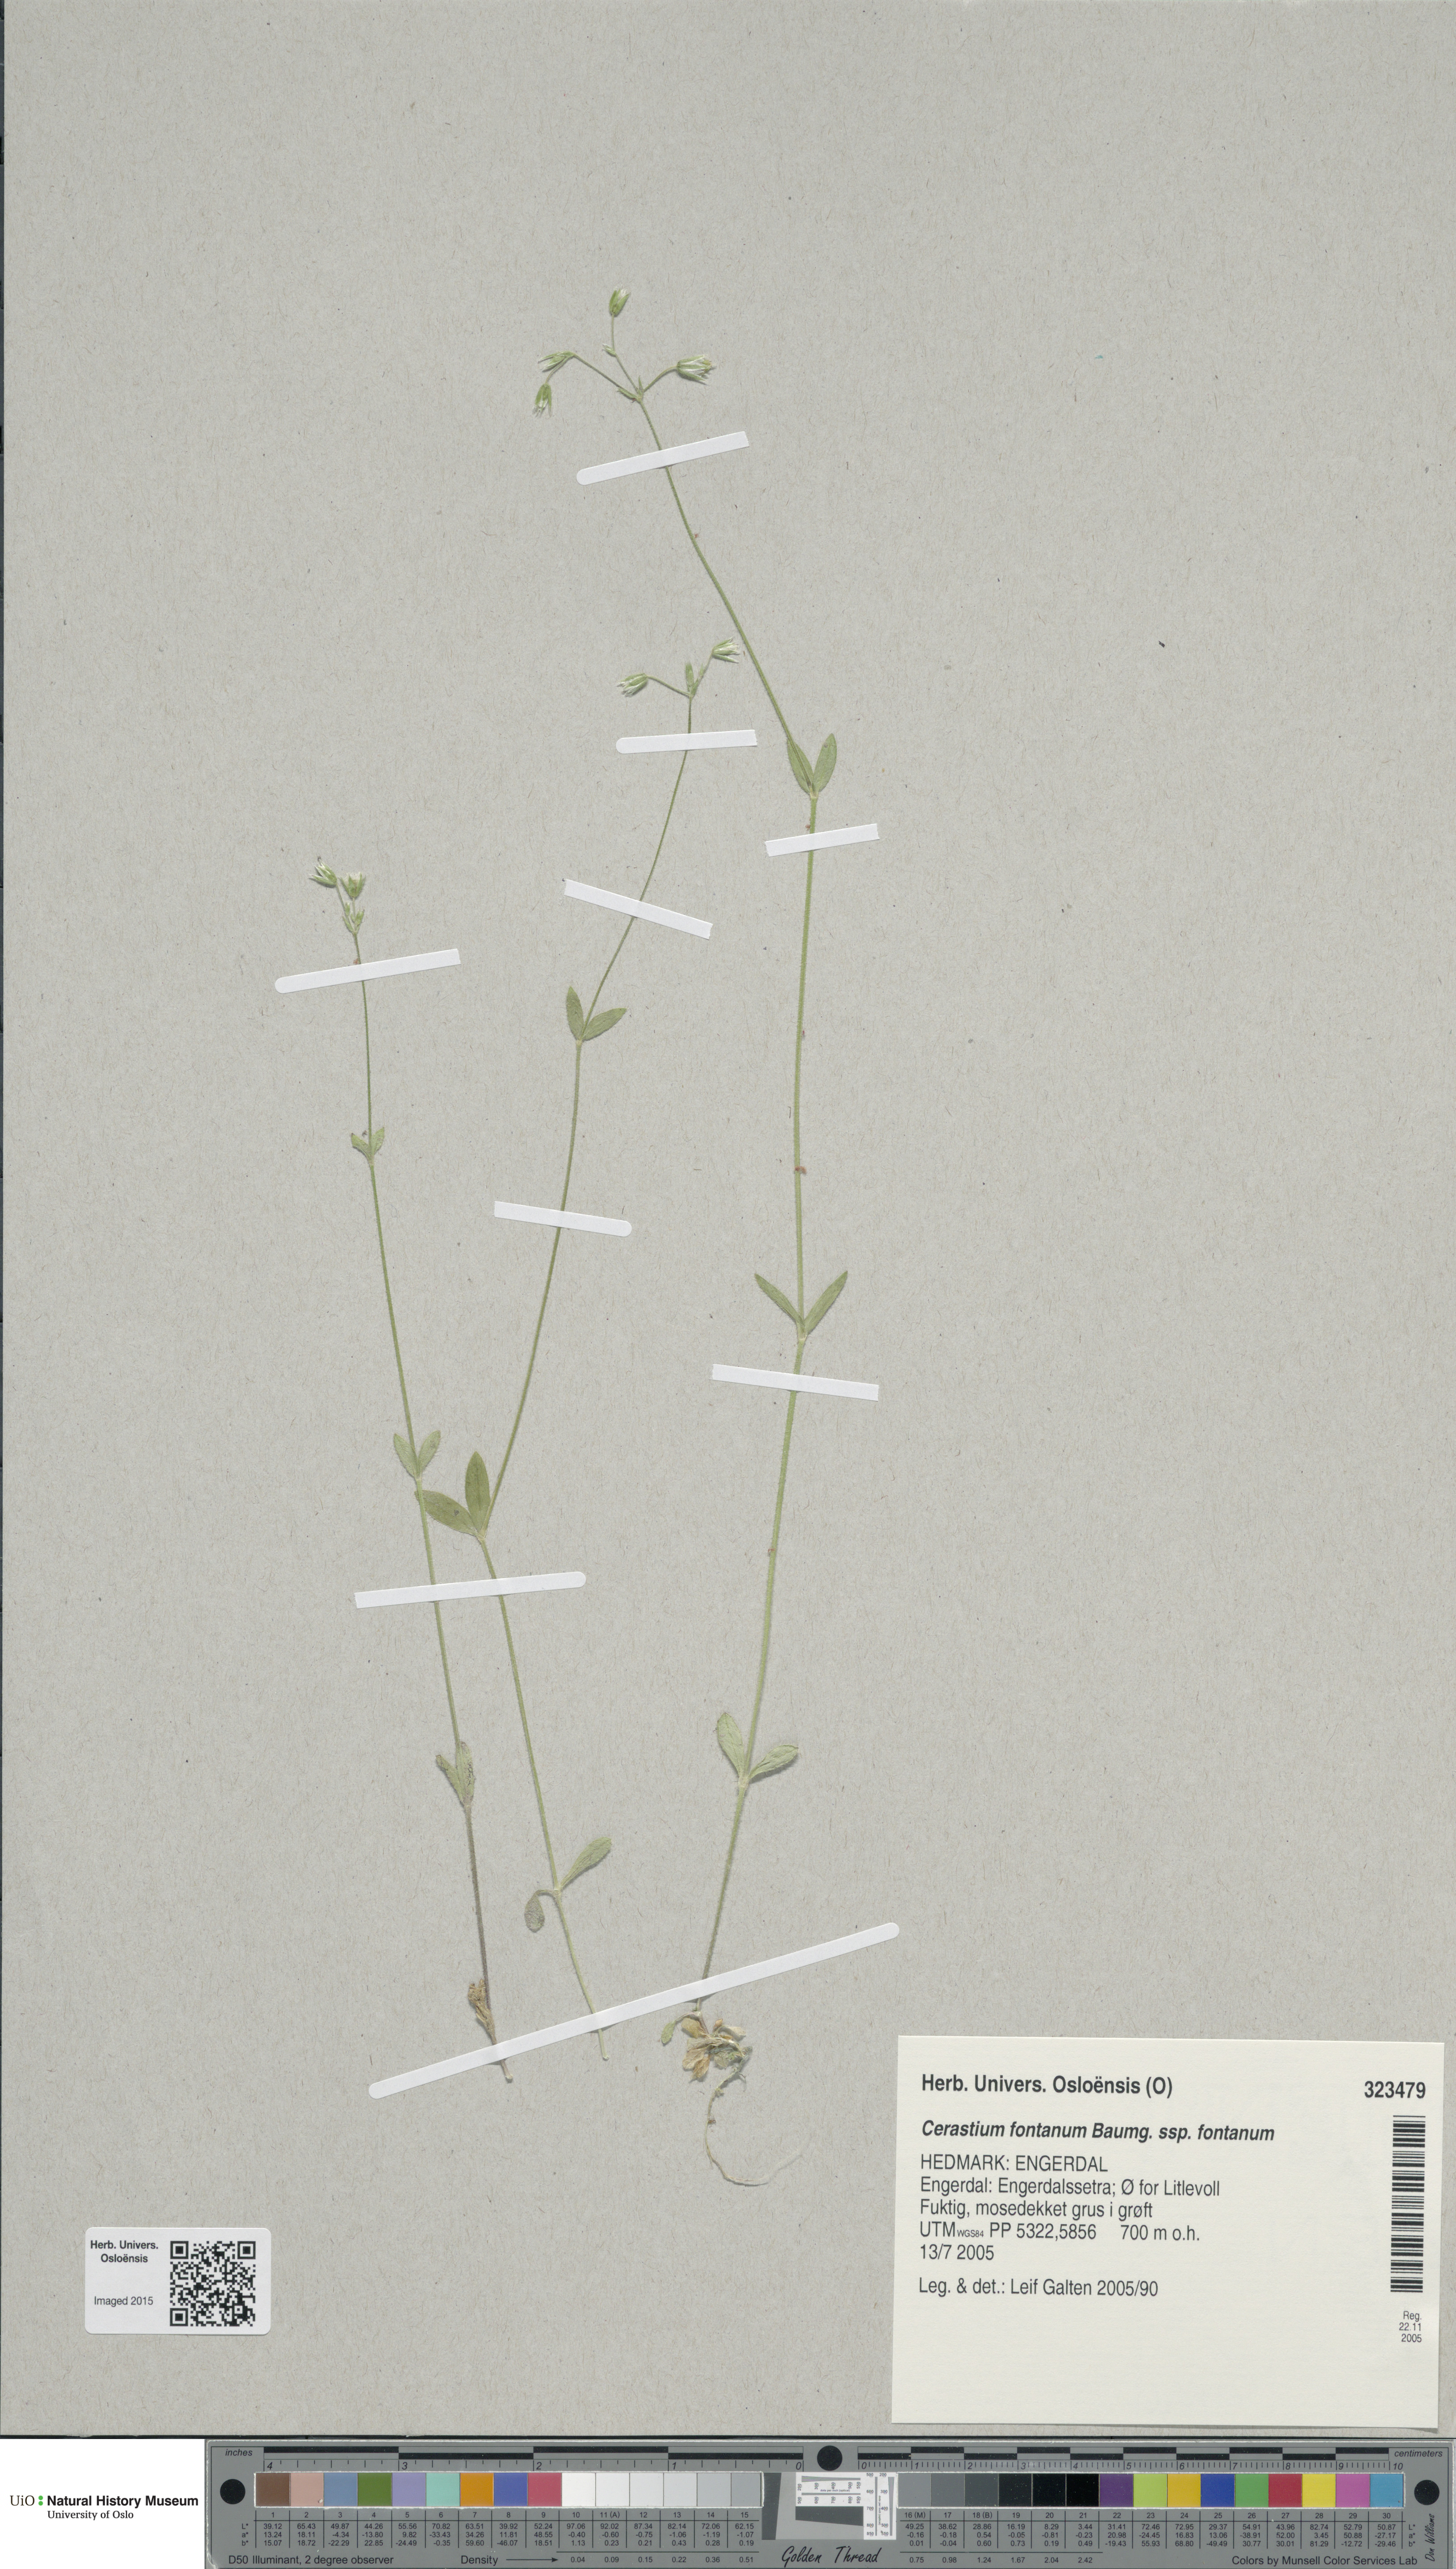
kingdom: Plantae
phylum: Tracheophyta
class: Magnoliopsida
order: Caryophyllales
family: Caryophyllaceae
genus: Cerastium
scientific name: Cerastium fontanum
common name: Common mouse-ear
